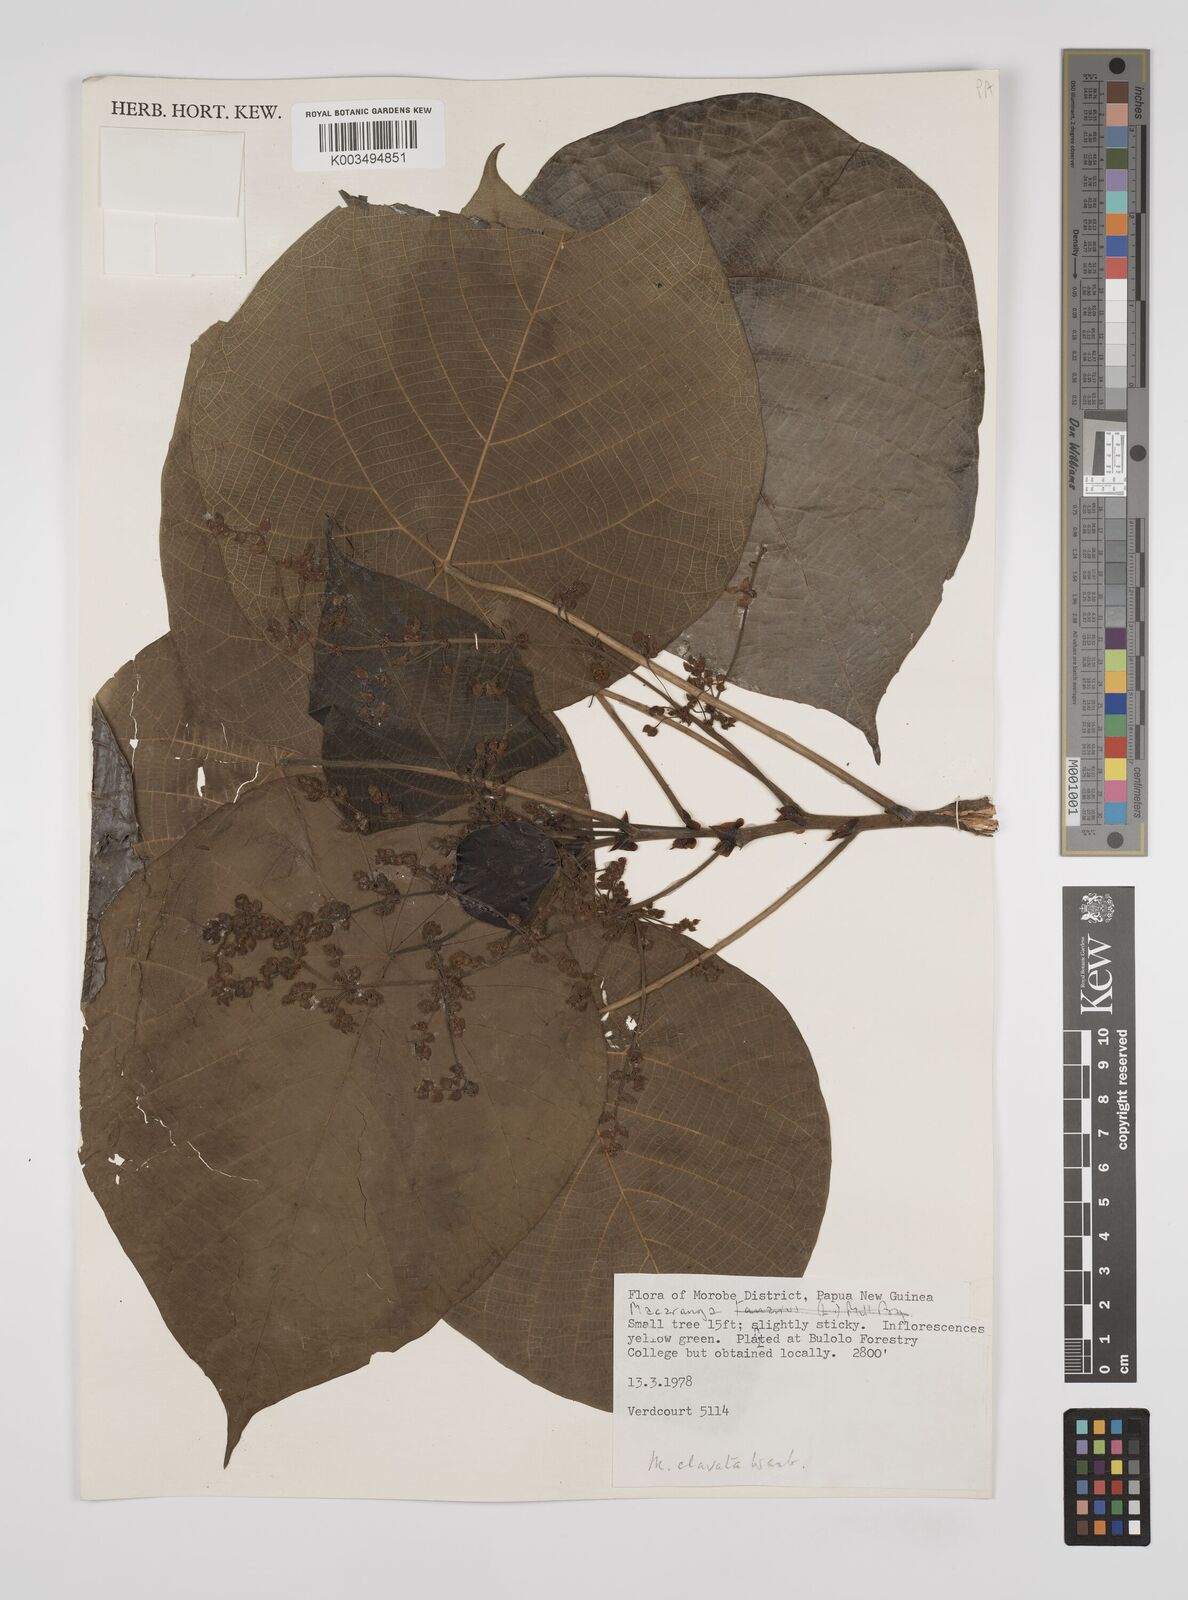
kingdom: Plantae
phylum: Tracheophyta
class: Magnoliopsida
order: Malpighiales
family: Euphorbiaceae
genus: Macaranga
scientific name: Macaranga clavata
